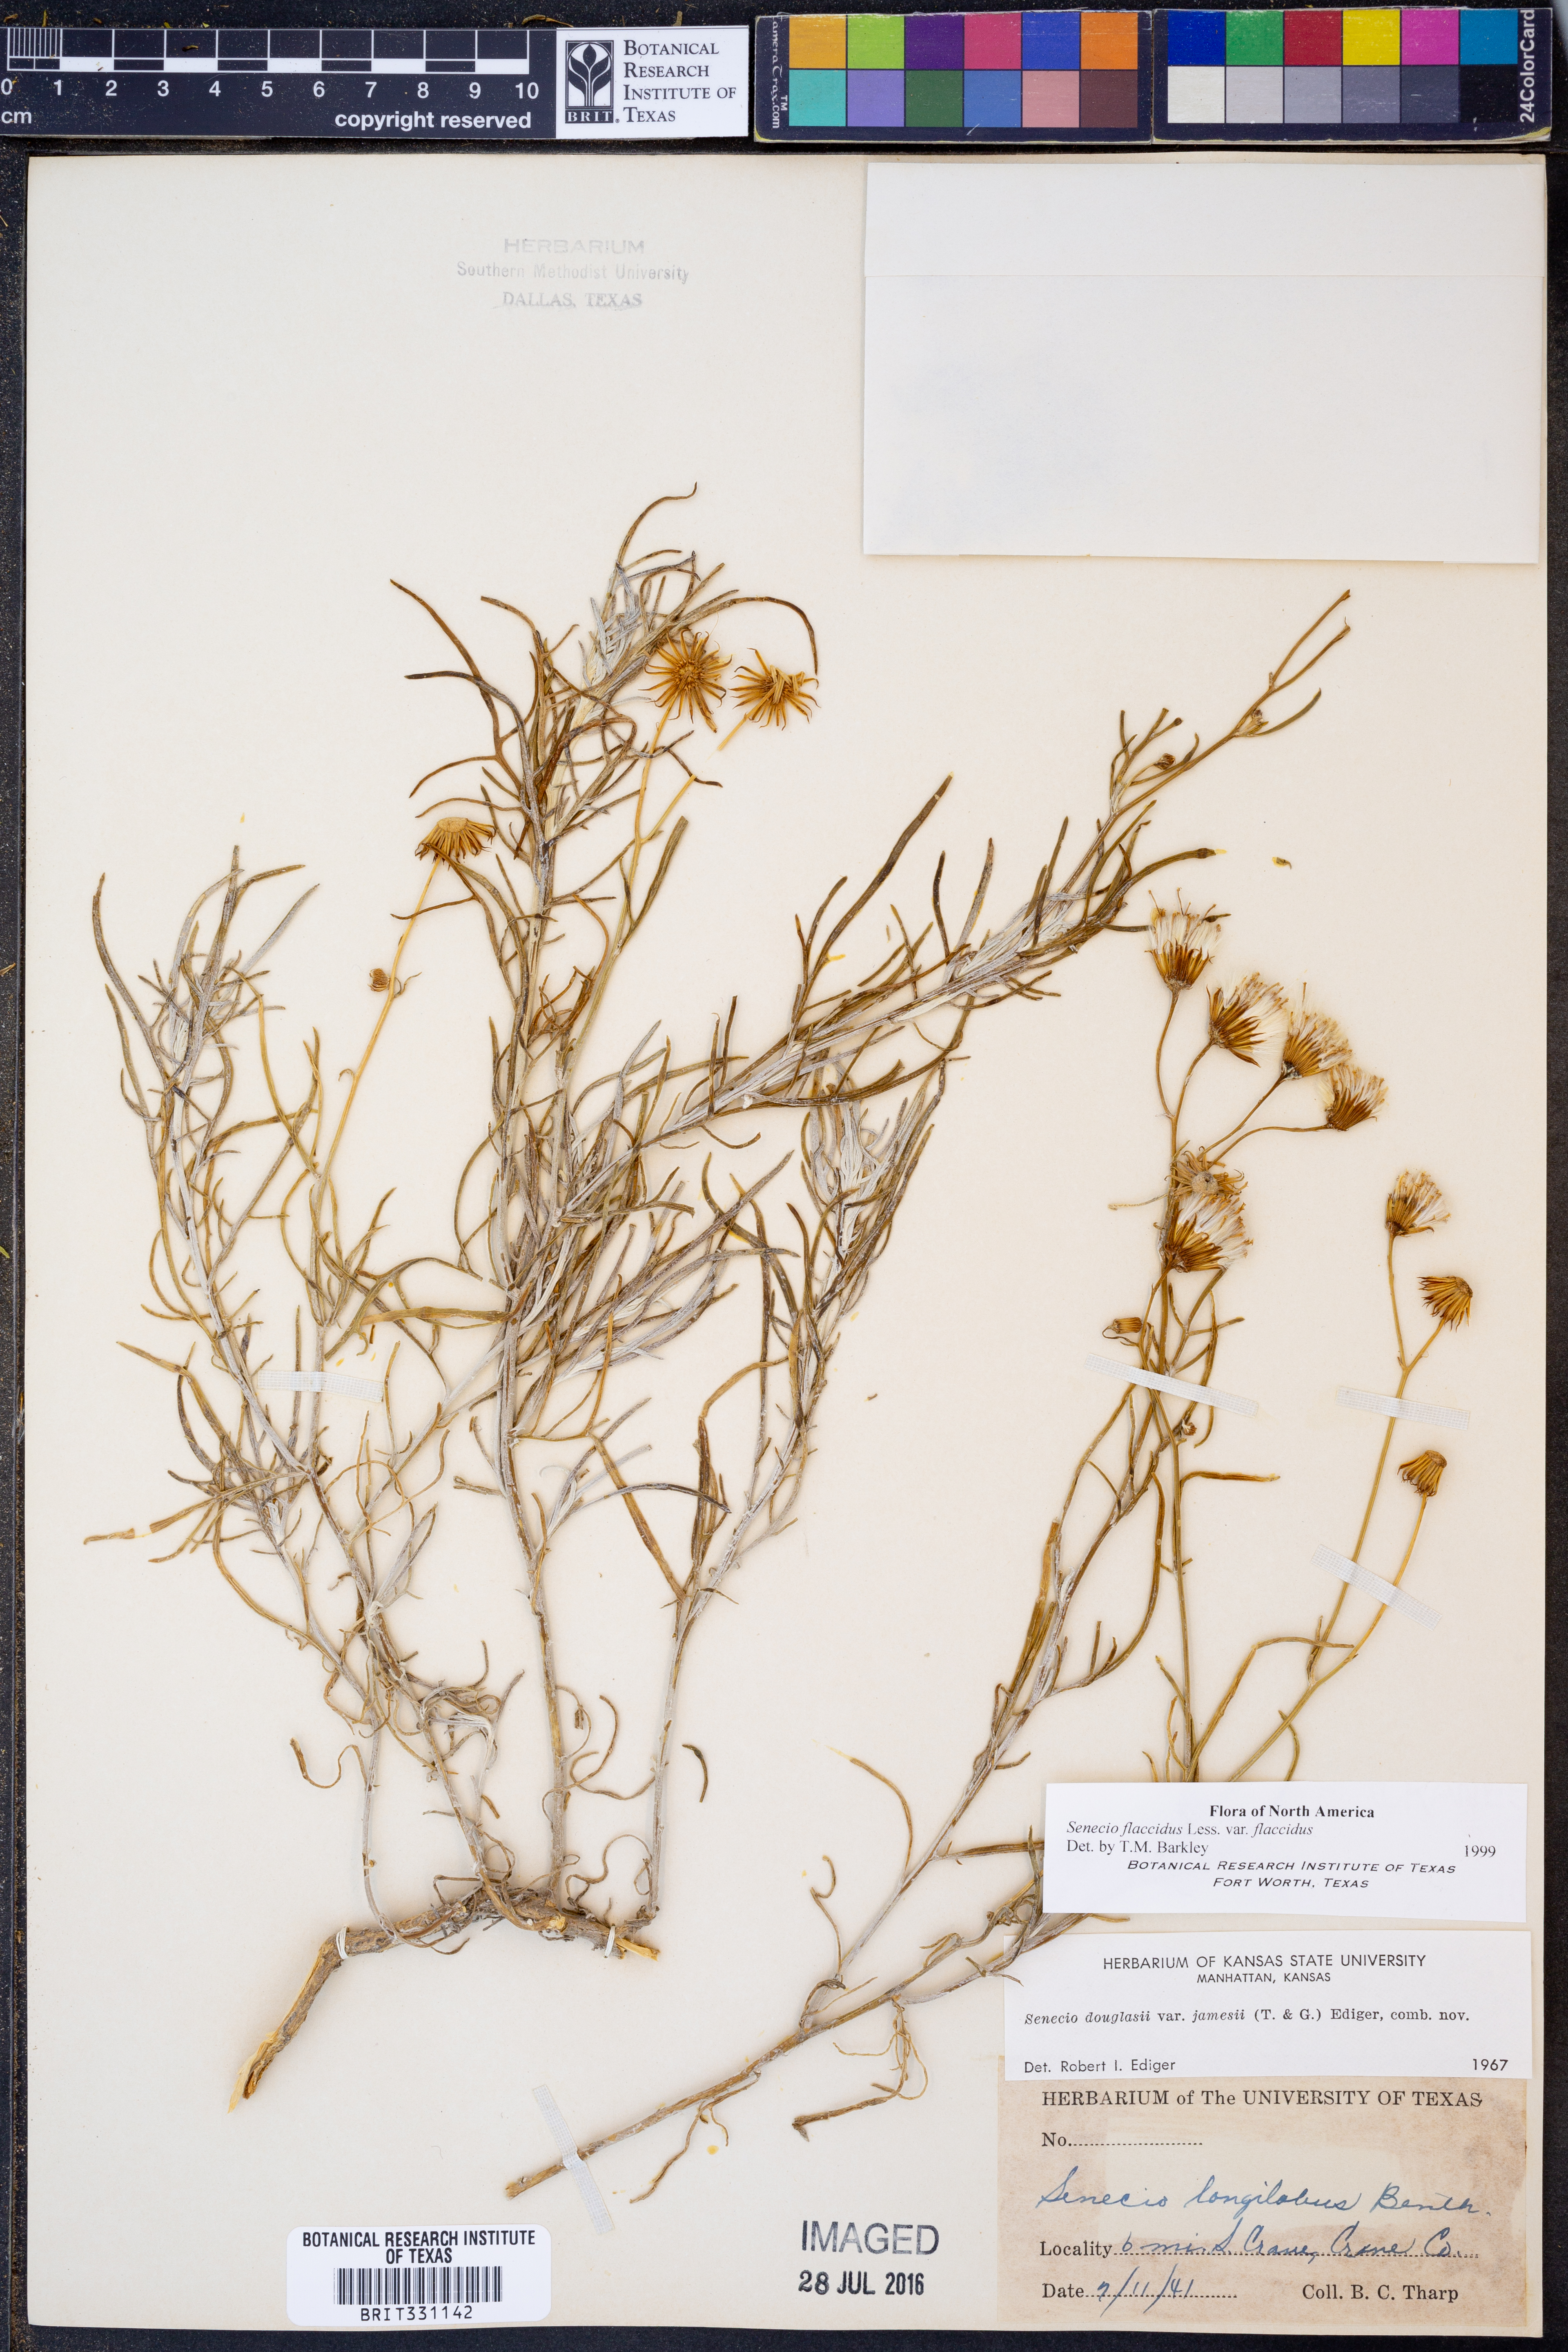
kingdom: Plantae
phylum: Tracheophyta
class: Magnoliopsida
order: Asterales
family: Asteraceae
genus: Senecio
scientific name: Senecio flaccidus
